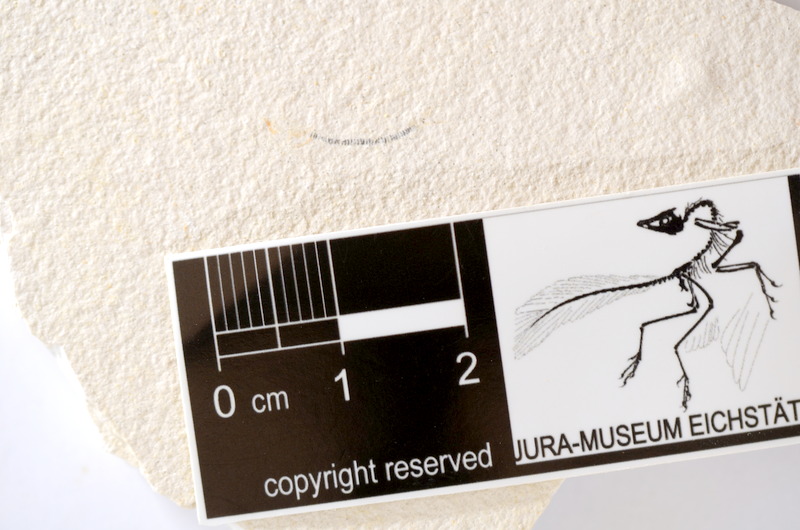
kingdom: Animalia
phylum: Chordata
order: Salmoniformes
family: Orthogonikleithridae
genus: Orthogonikleithrus
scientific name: Orthogonikleithrus hoelli
